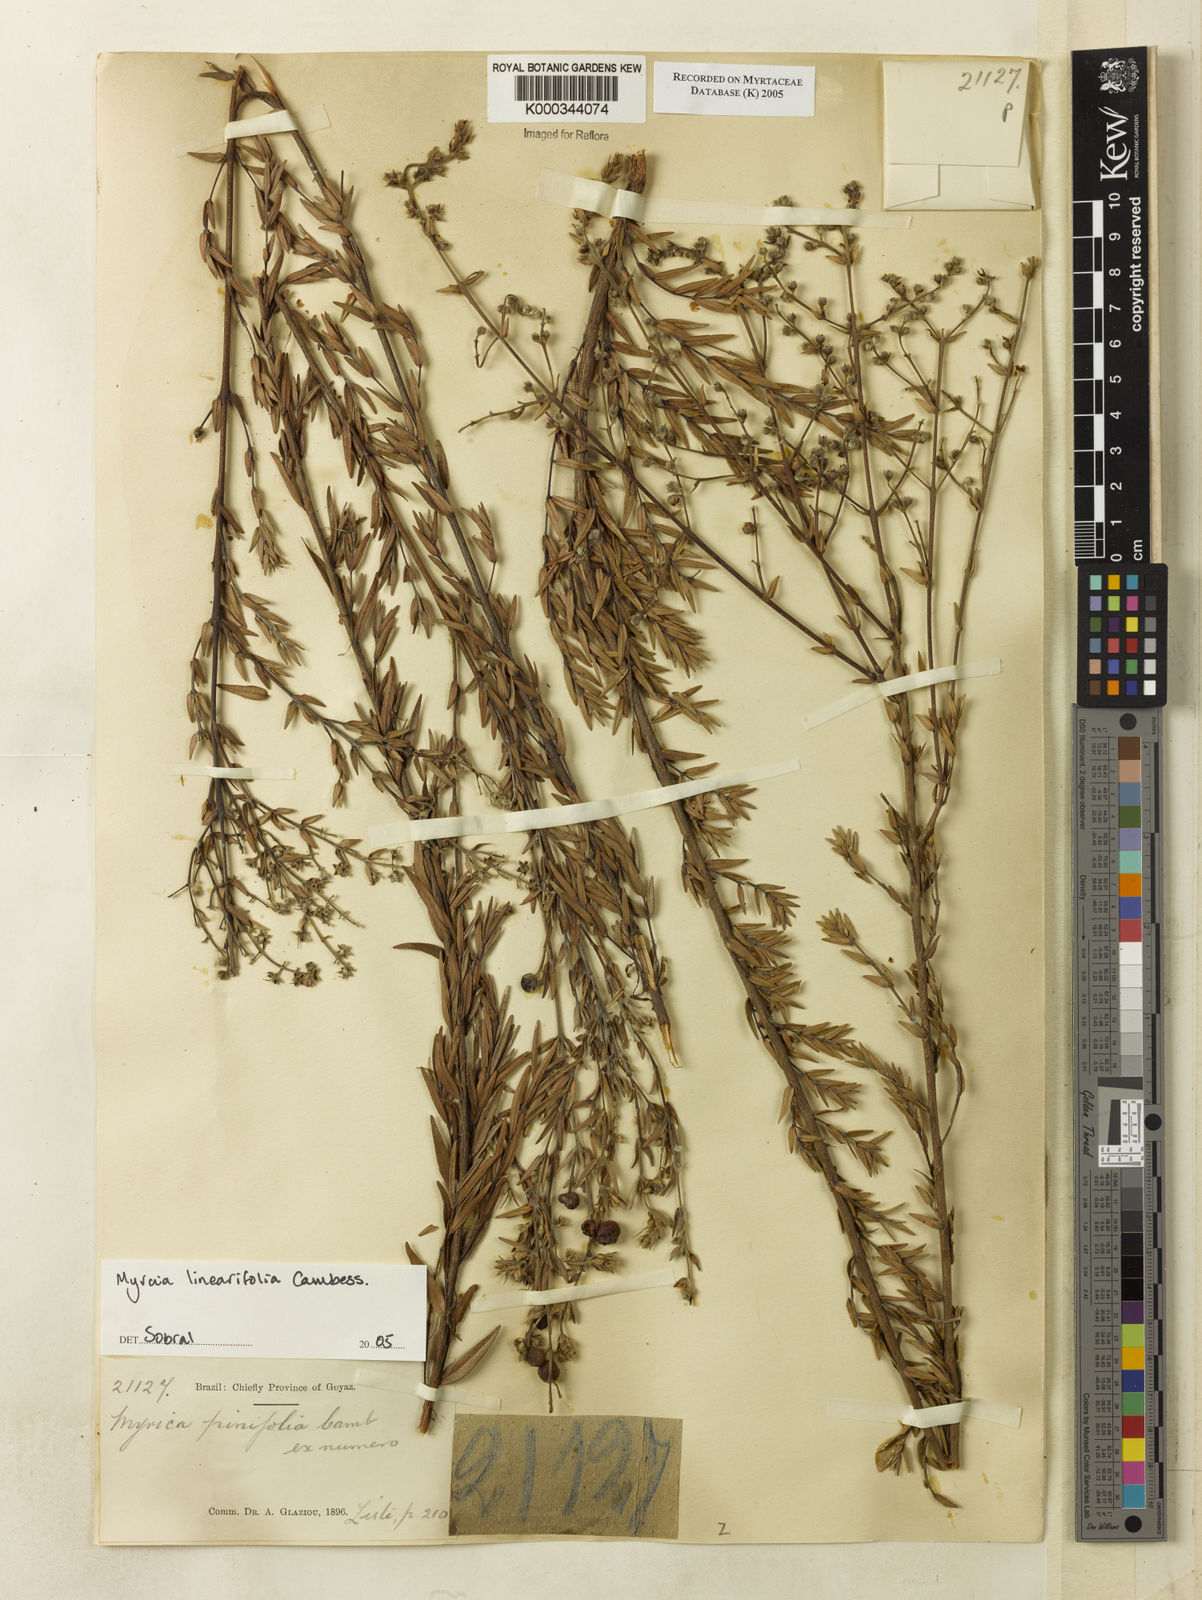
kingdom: Plantae
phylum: Tracheophyta
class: Magnoliopsida
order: Myrtales
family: Myrtaceae
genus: Myrcia
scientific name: Myrcia linearifolia
